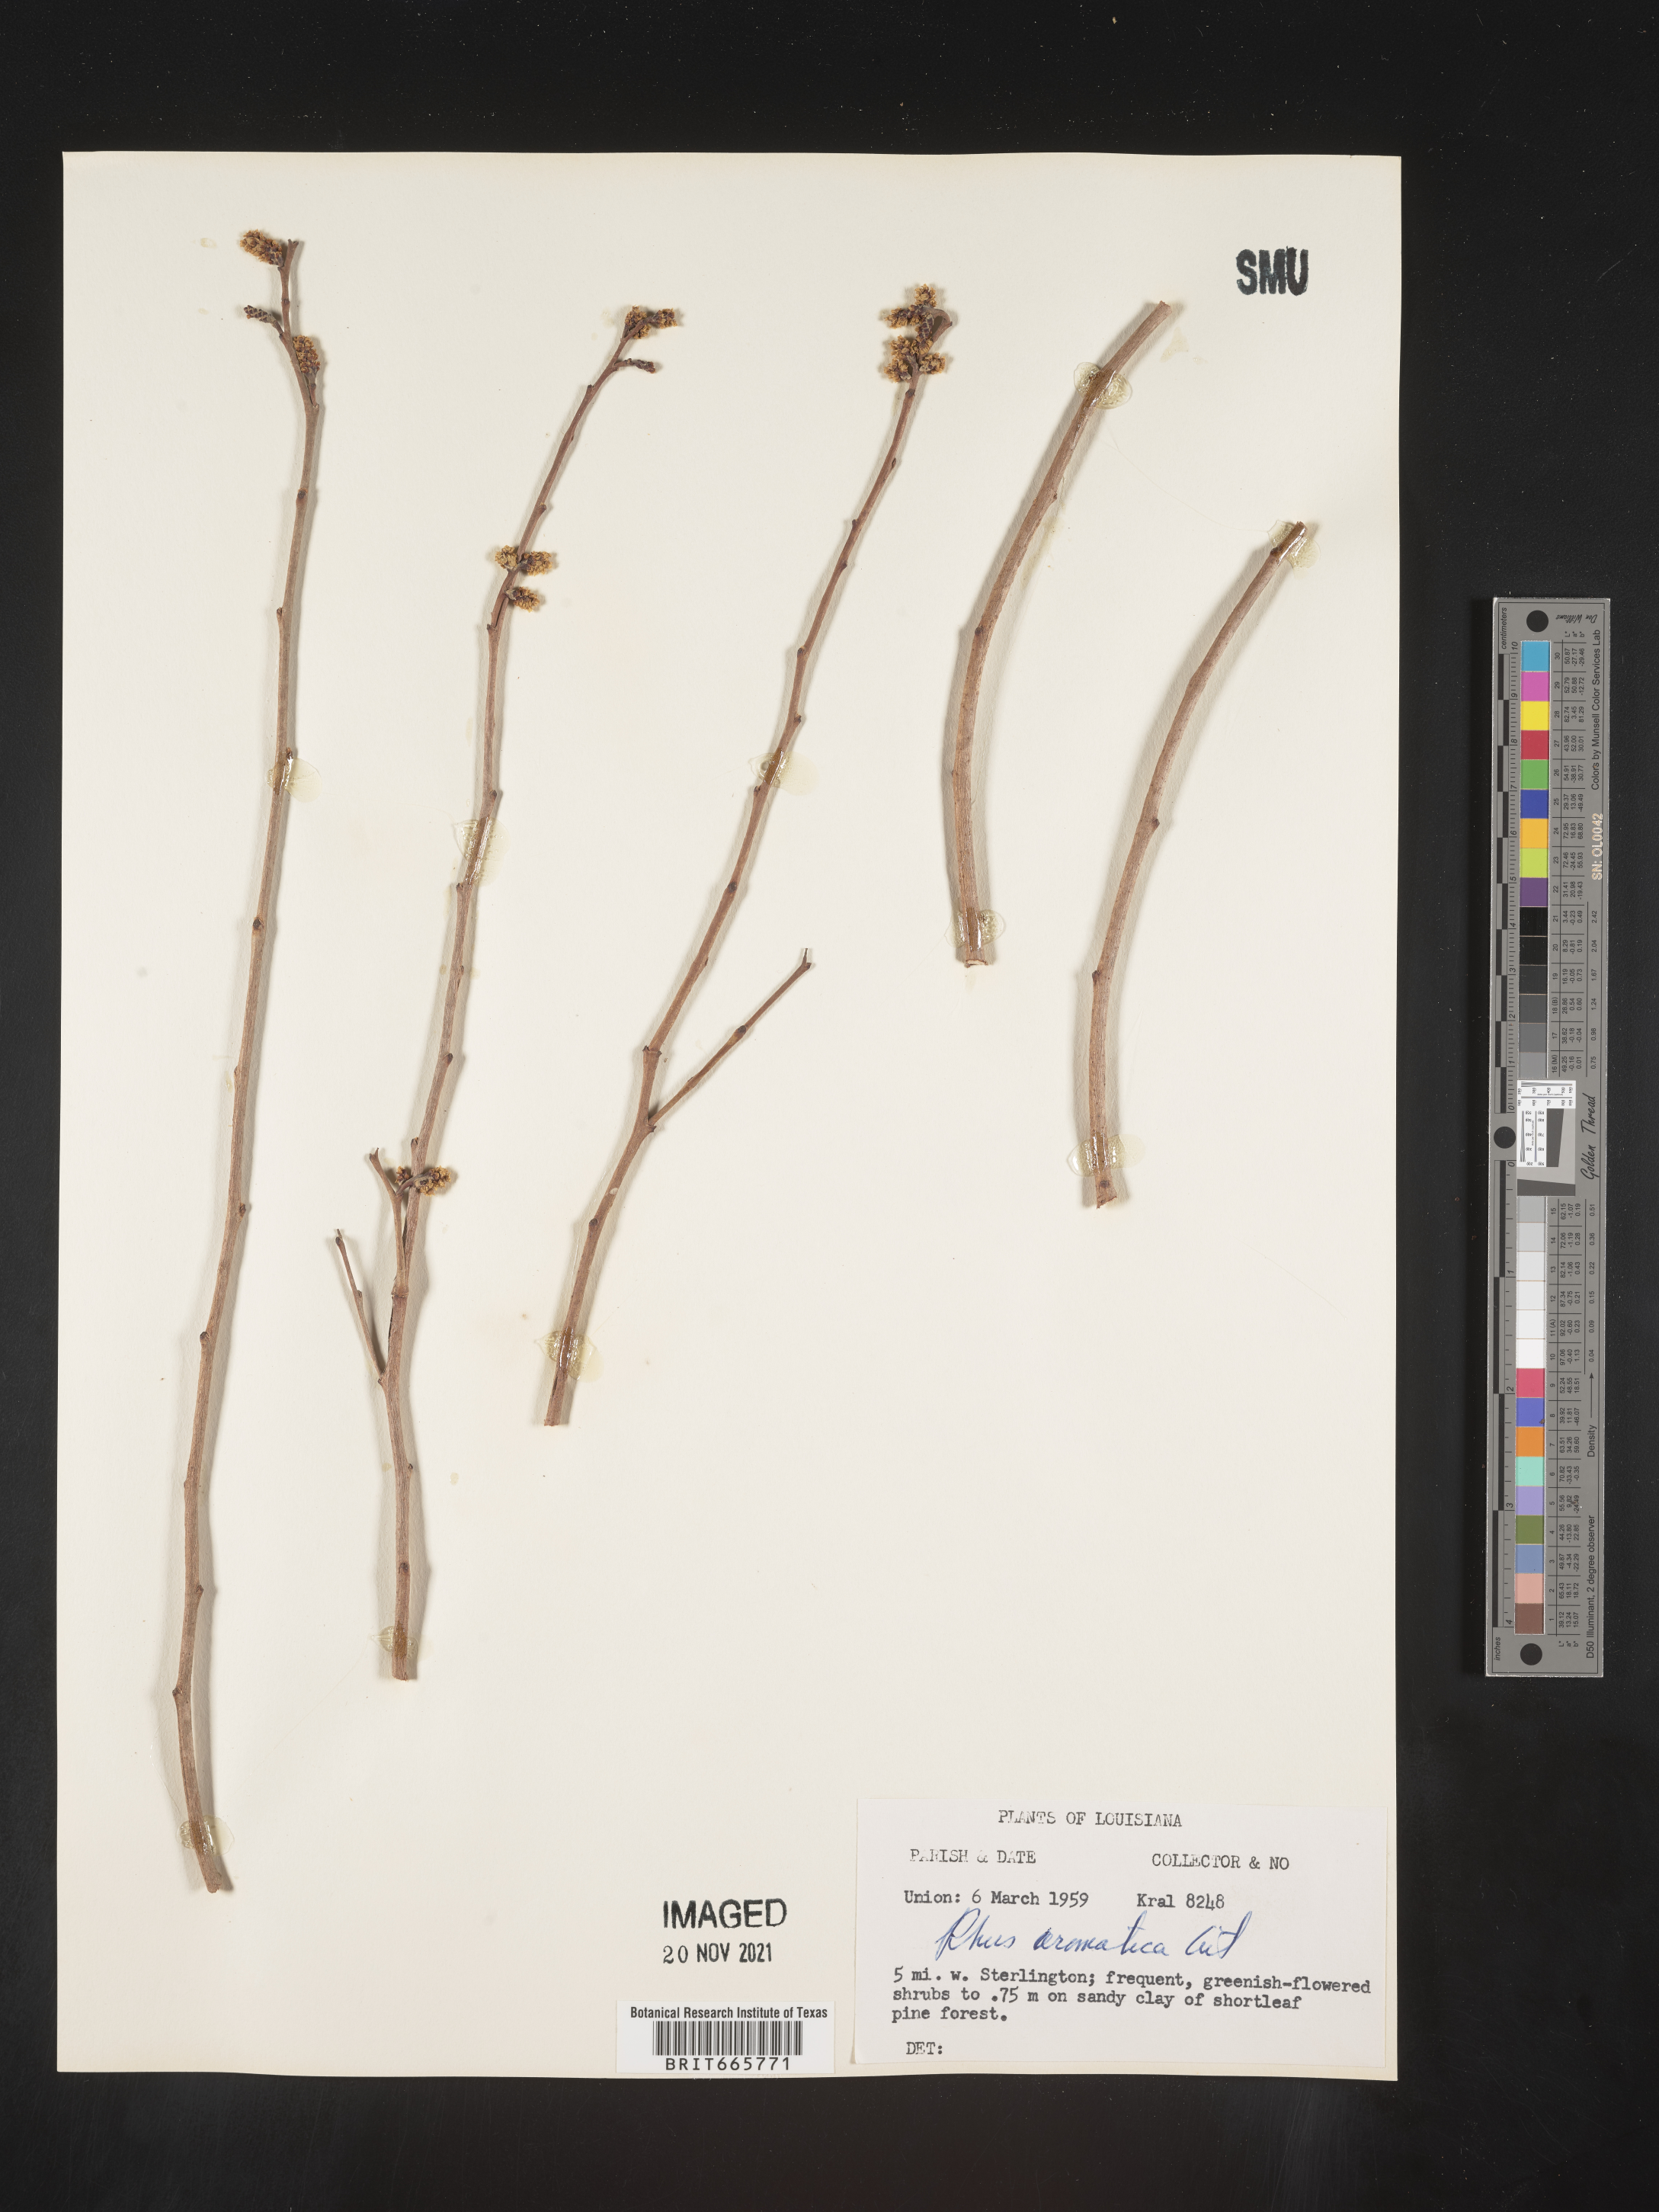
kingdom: Plantae
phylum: Tracheophyta
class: Magnoliopsida
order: Sapindales
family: Anacardiaceae
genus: Rhus
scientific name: Rhus aromatica
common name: Aromatic sumac
